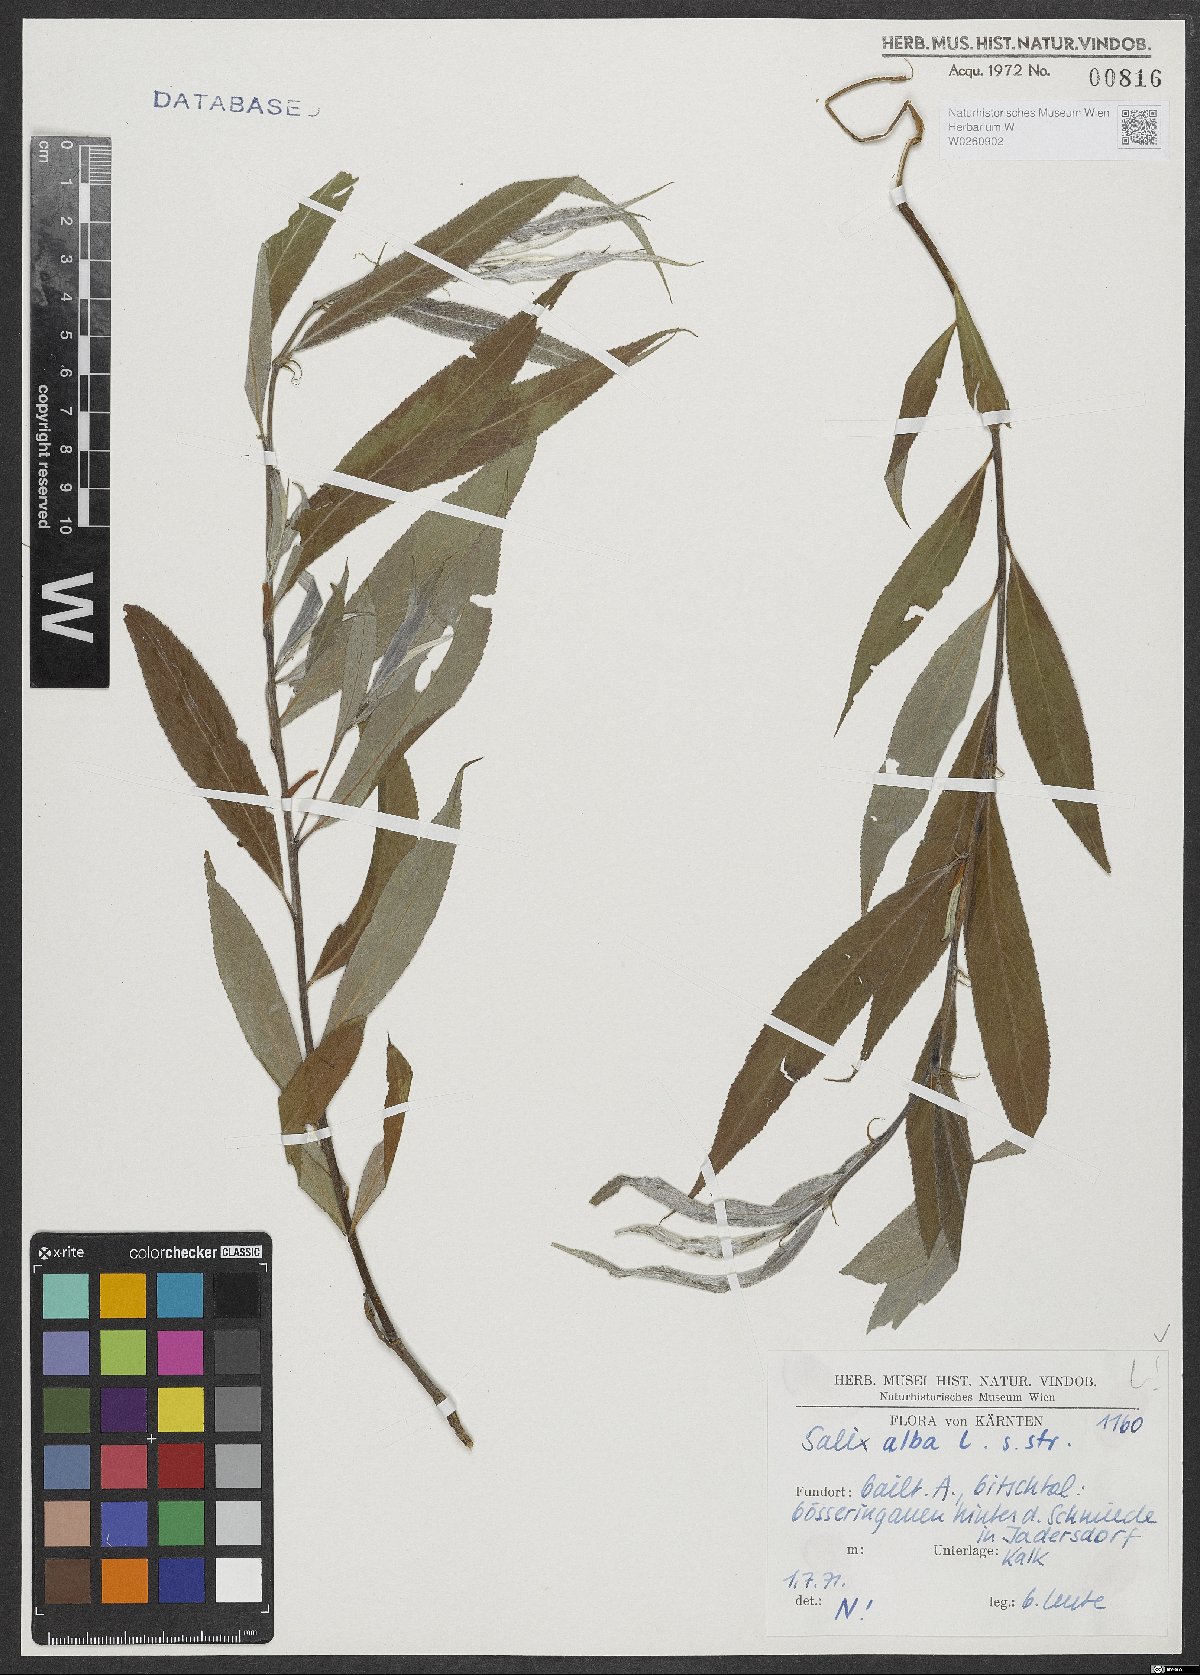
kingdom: Plantae
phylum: Tracheophyta
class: Magnoliopsida
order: Malpighiales
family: Salicaceae
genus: Salix
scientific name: Salix alba
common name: White willow
